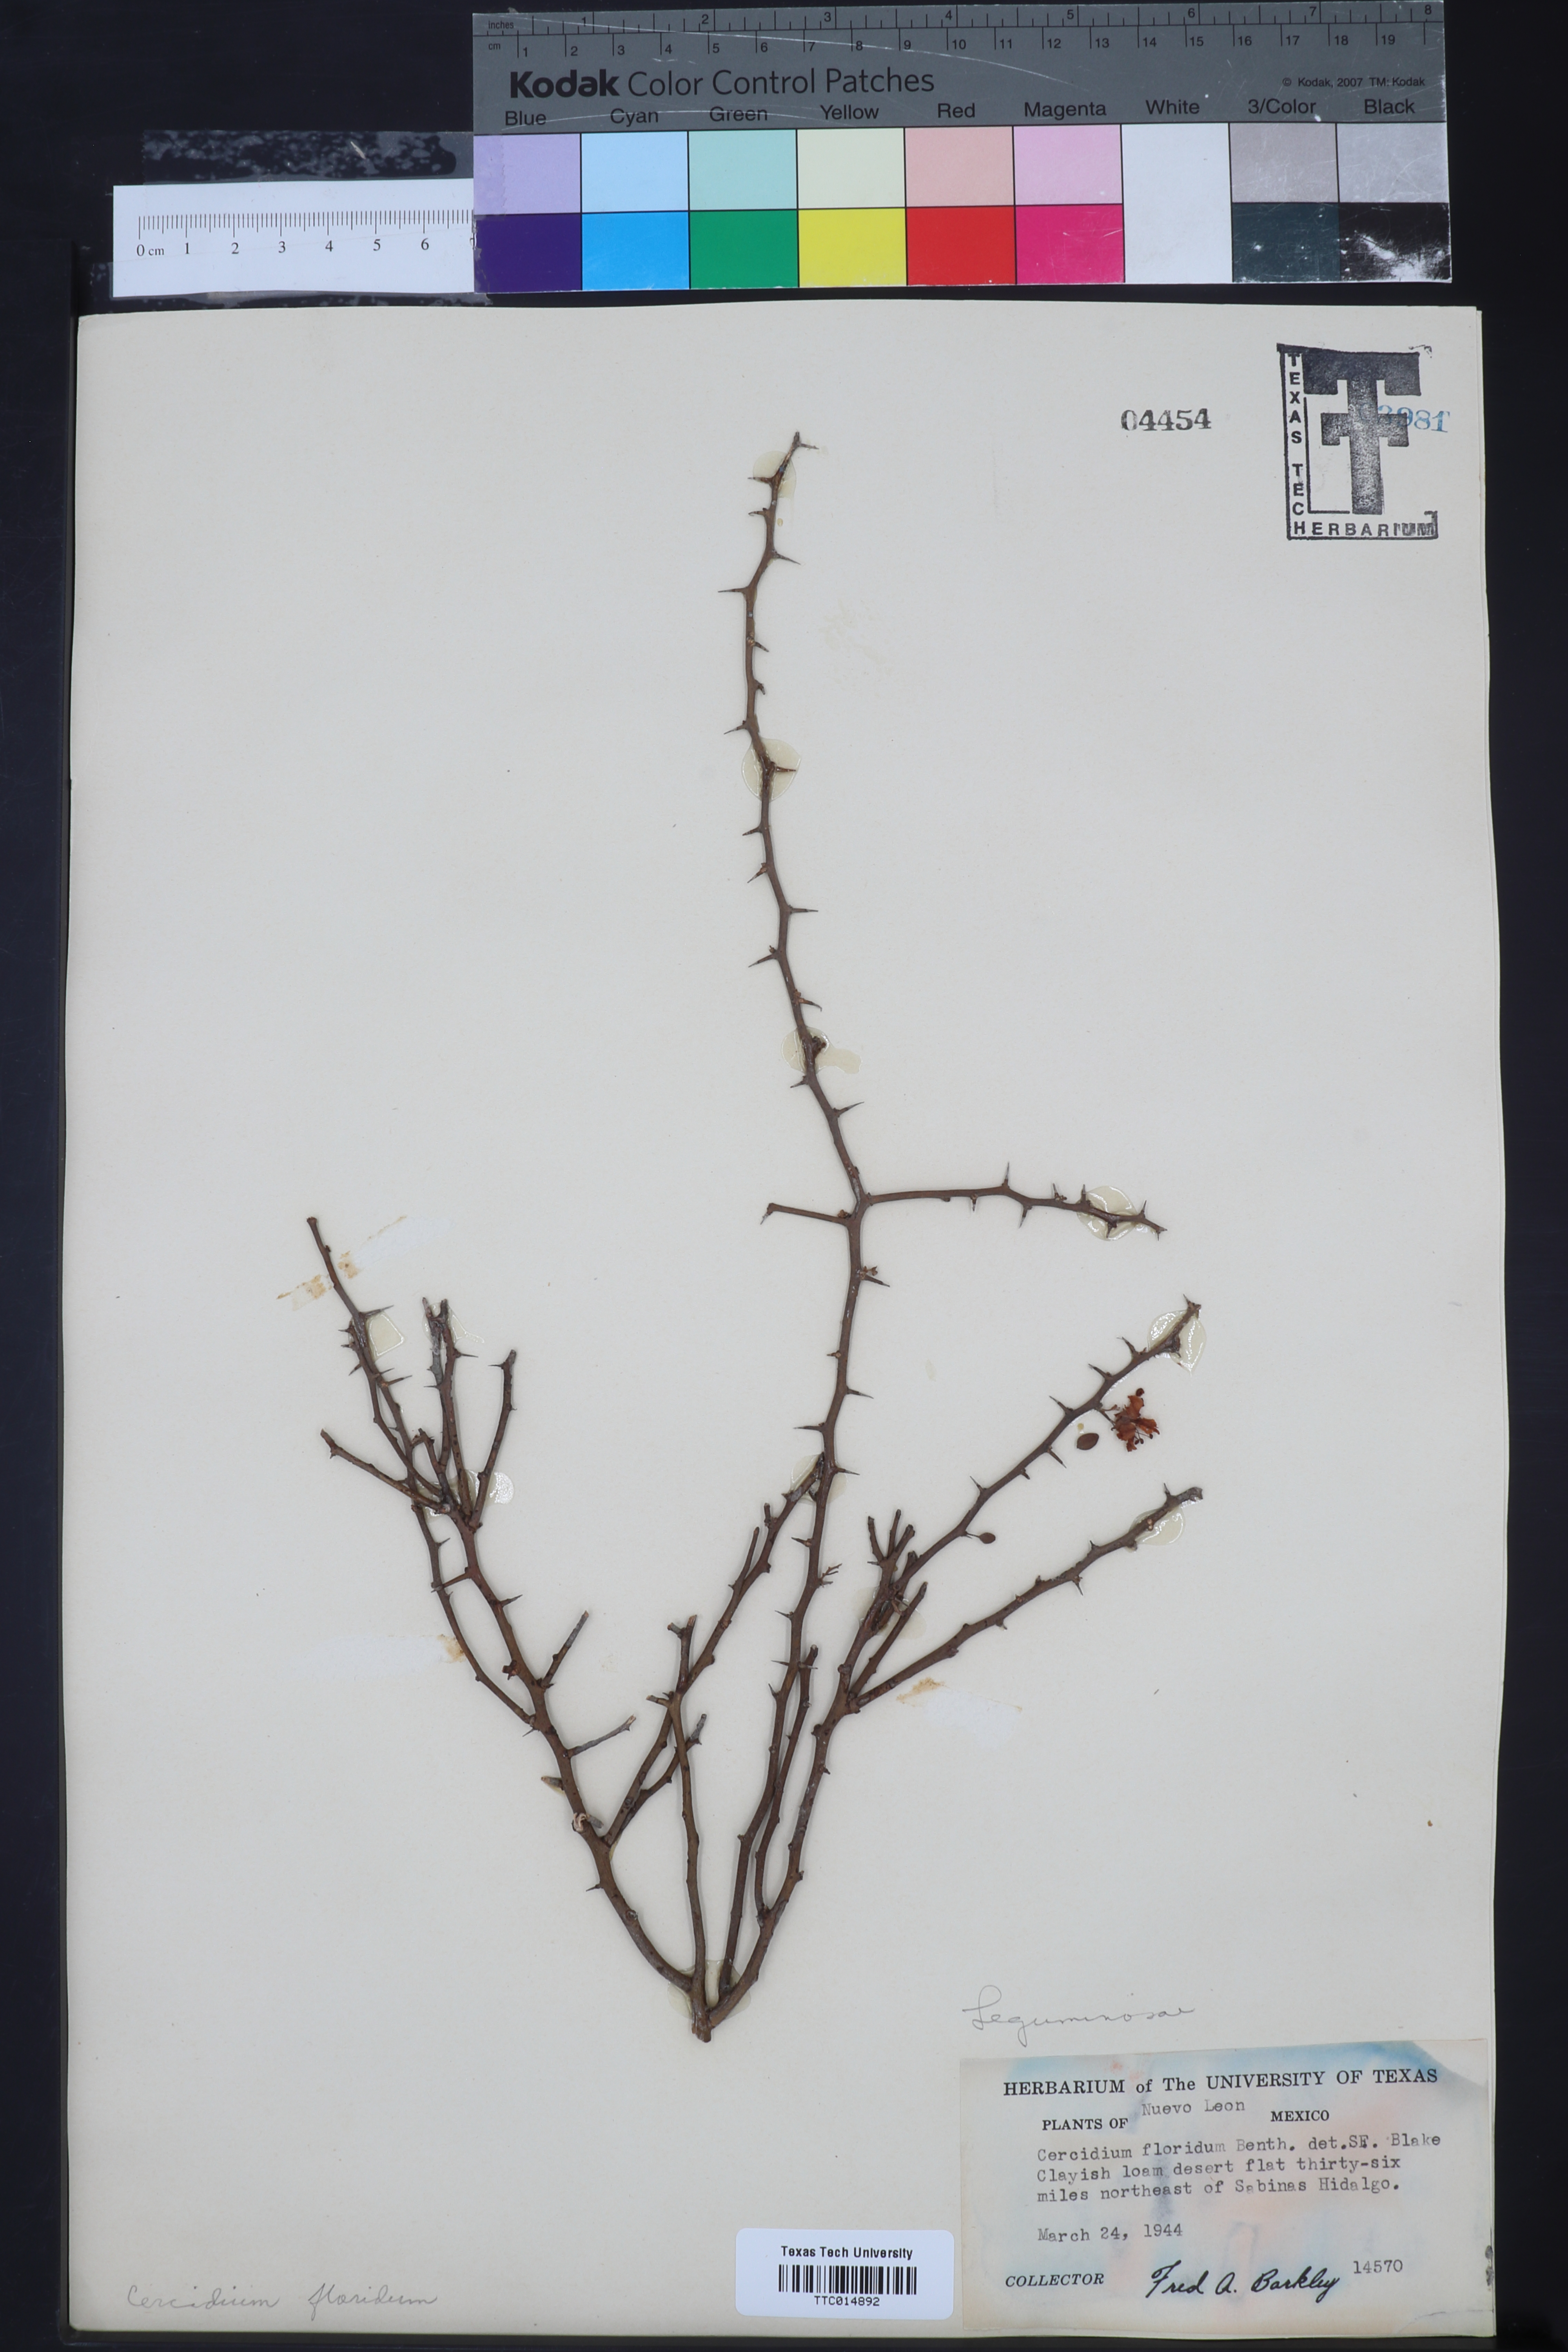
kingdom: Plantae
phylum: Tracheophyta
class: Magnoliopsida
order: Fabales
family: Fabaceae
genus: Parkinsonia
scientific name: Parkinsonia florida
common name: Blue paloverde
